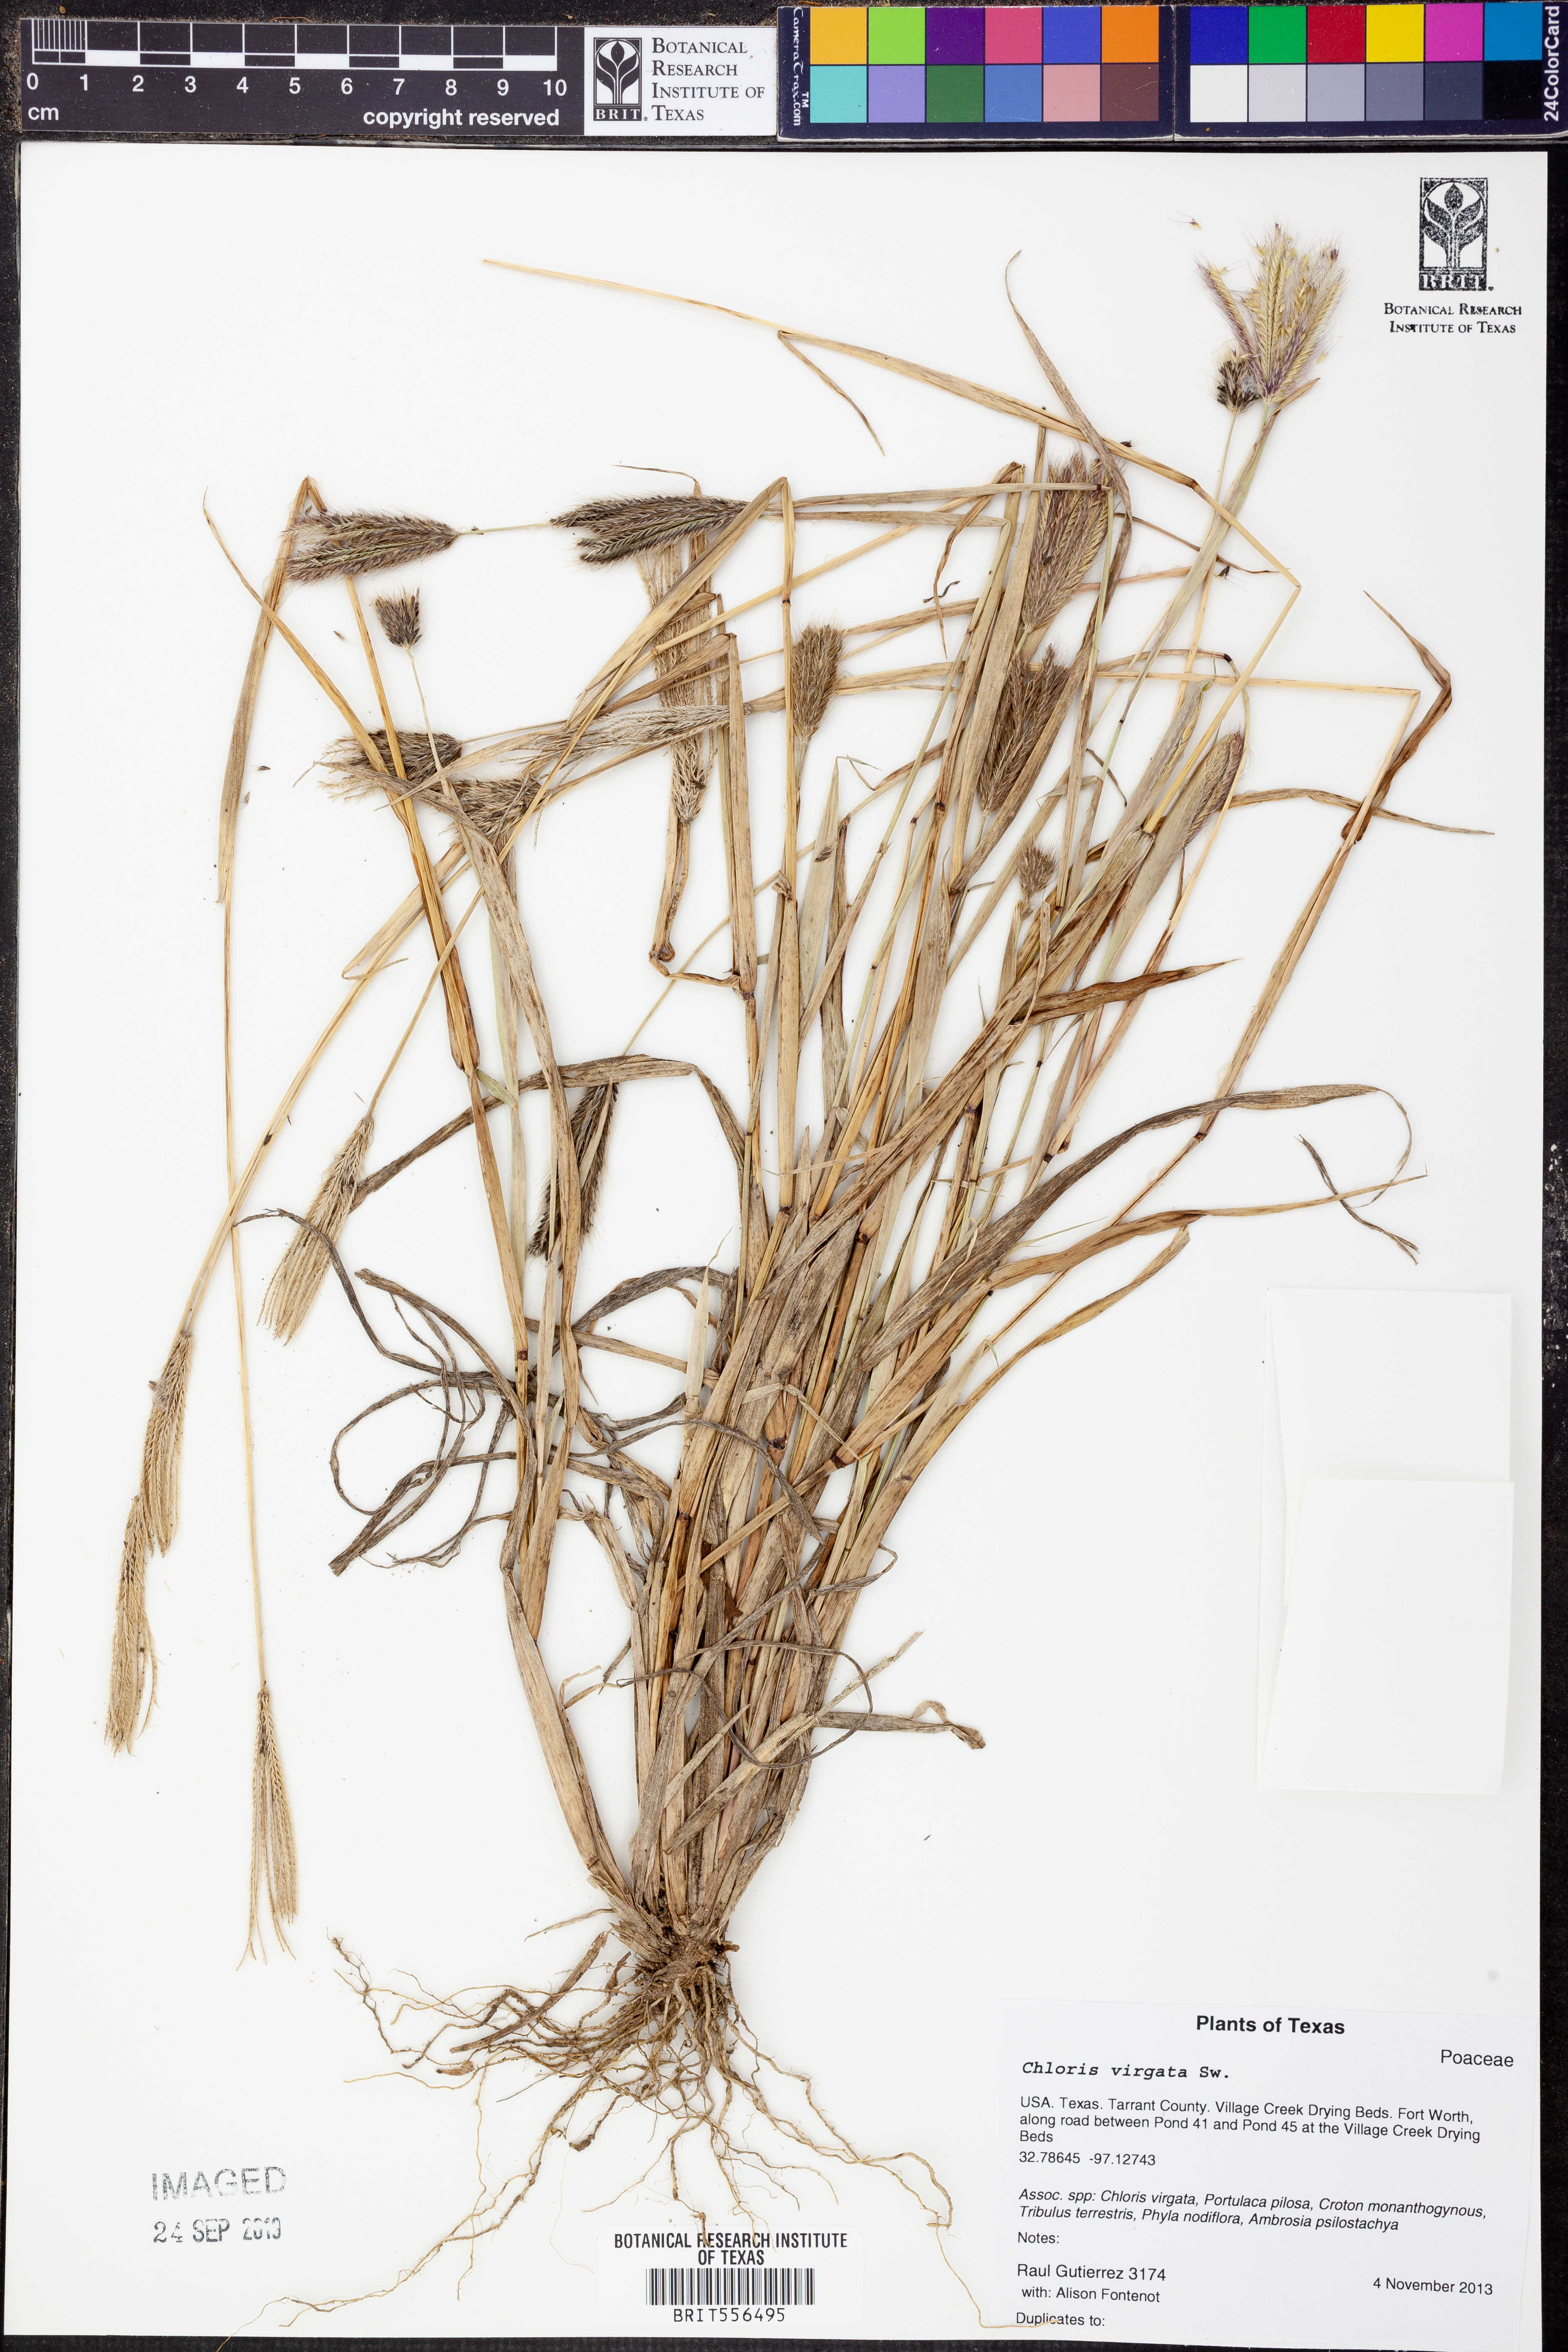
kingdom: Plantae
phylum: Tracheophyta
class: Liliopsida
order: Poales
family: Poaceae
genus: Chloris
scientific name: Chloris virgata
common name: Feathery rhodes-grass
